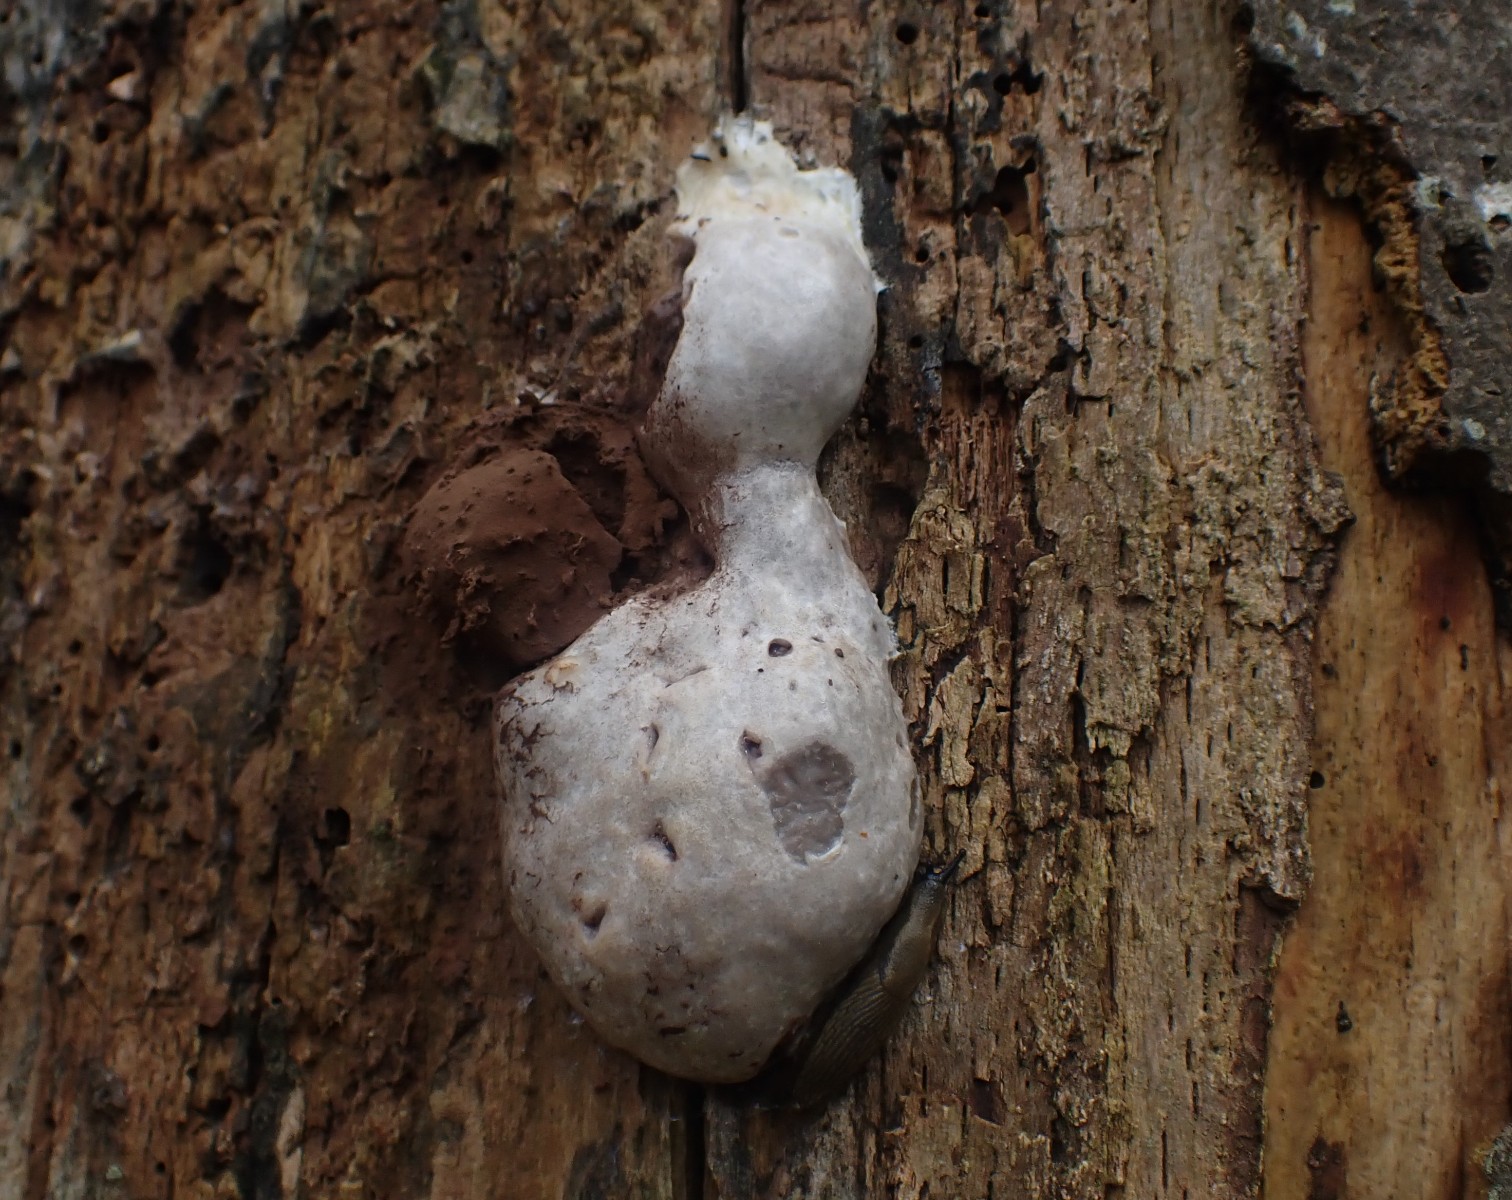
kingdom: Protozoa
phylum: Mycetozoa
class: Myxomycetes
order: Cribrariales
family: Tubiferaceae
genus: Reticularia
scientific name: Reticularia lycoperdon
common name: skinnende støvpude
